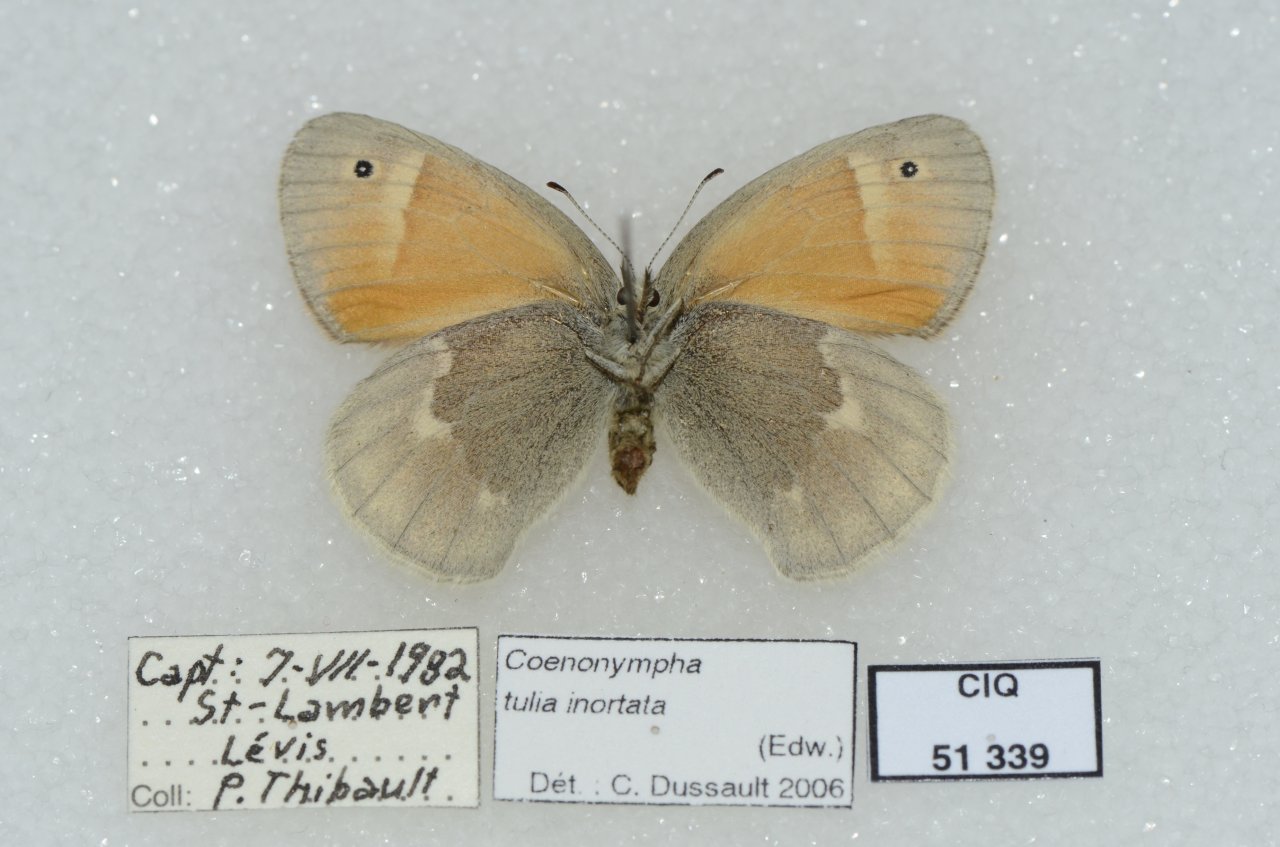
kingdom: Animalia
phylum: Arthropoda
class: Insecta
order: Lepidoptera
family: Nymphalidae
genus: Coenonympha
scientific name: Coenonympha tullia
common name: Large Heath
